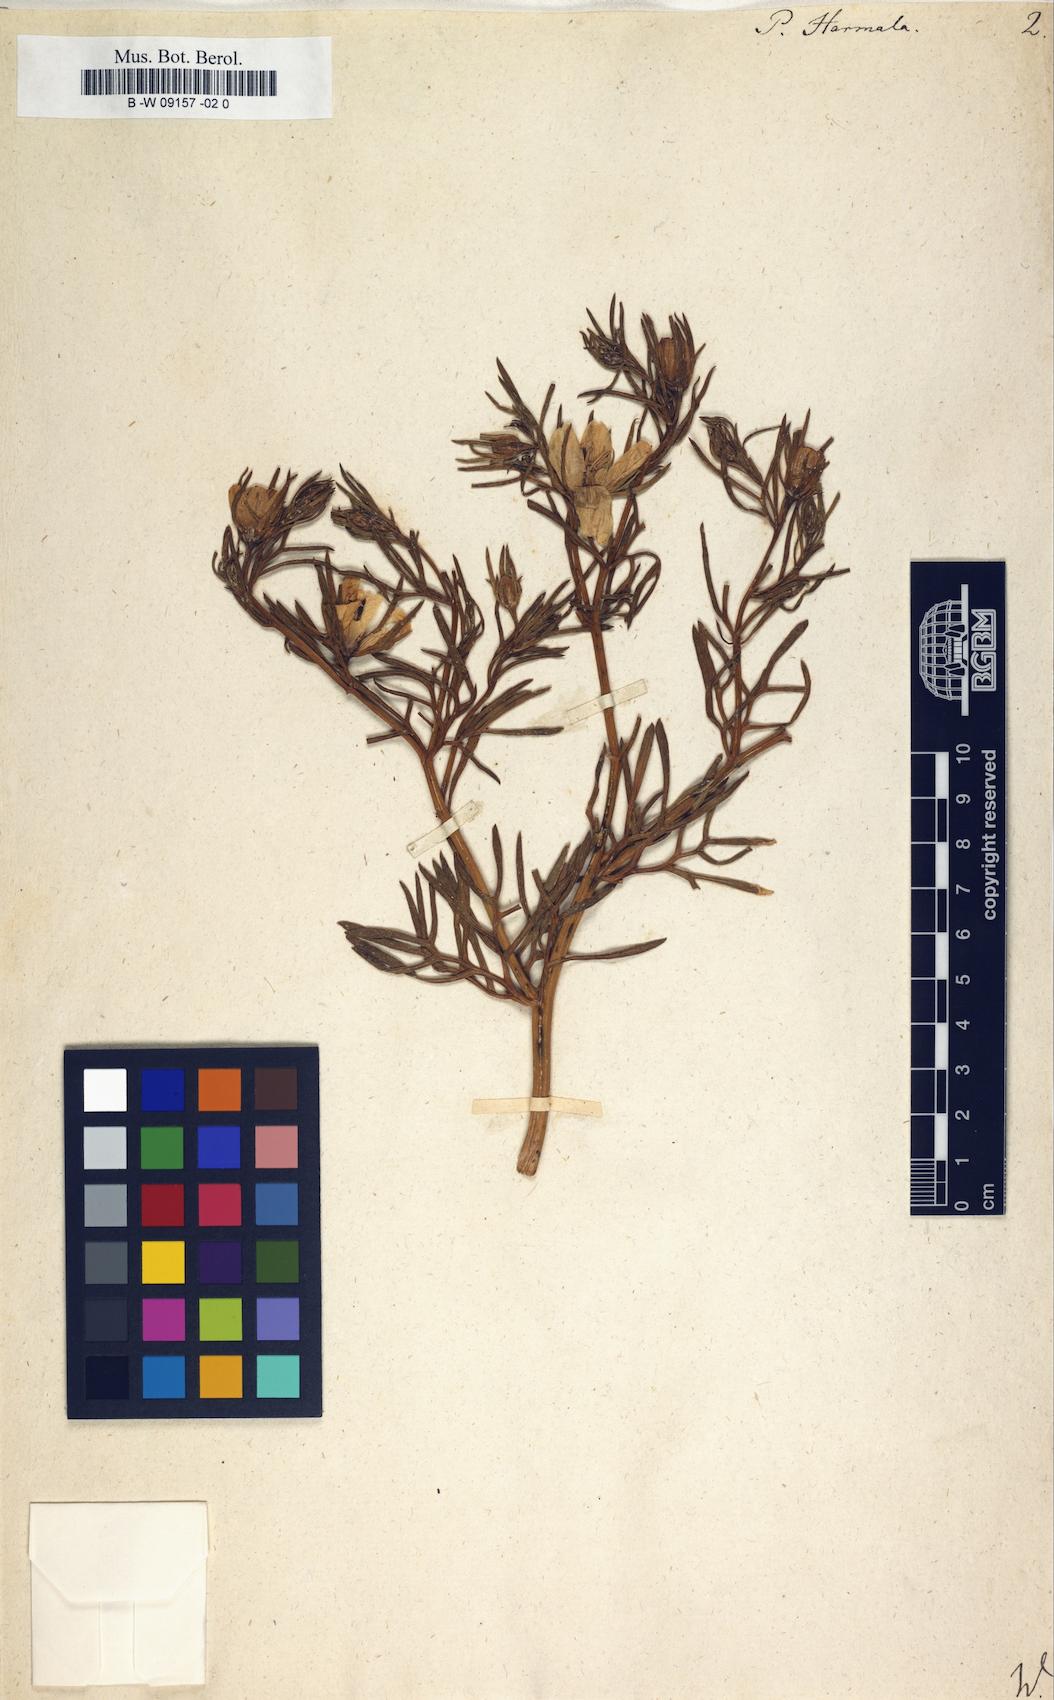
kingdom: Plantae
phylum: Tracheophyta
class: Magnoliopsida
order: Sapindales
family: Tetradiclidaceae
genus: Peganum
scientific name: Peganum harmala
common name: Harmal peganum
